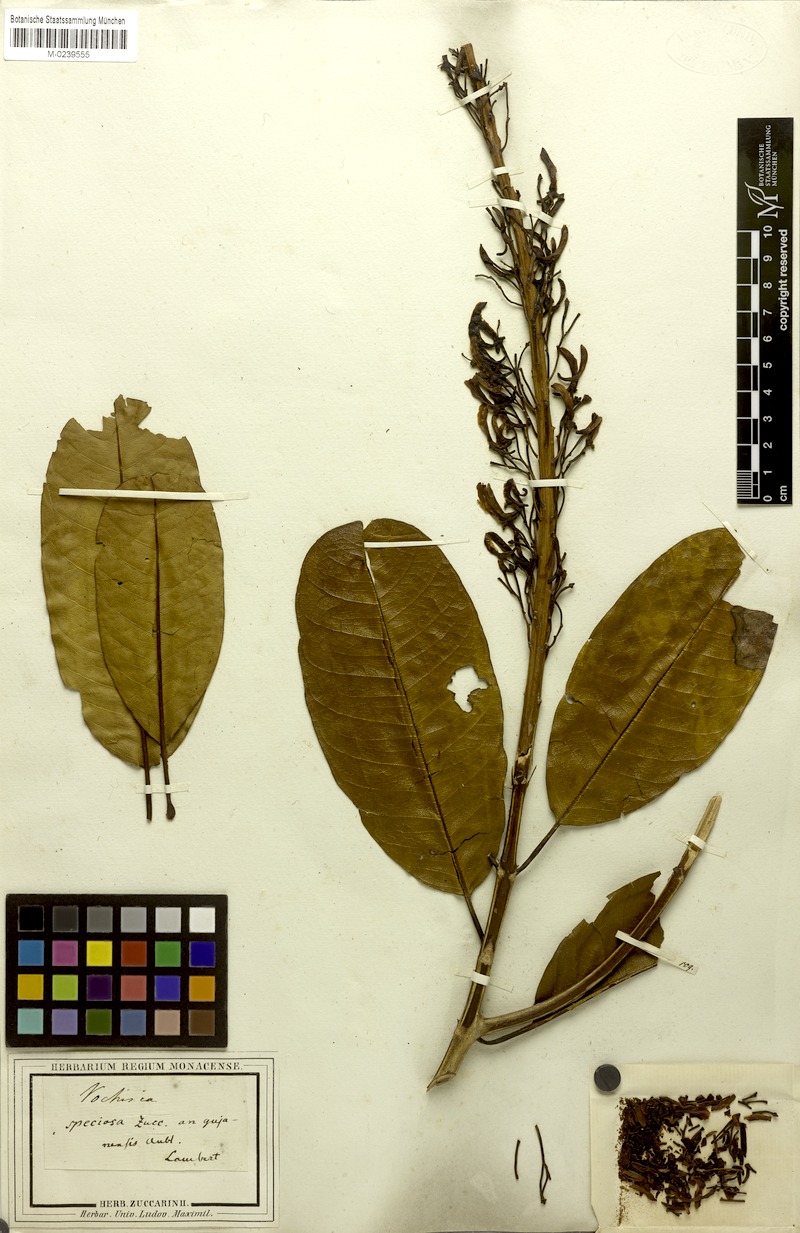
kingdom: Plantae
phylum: Tracheophyta
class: Magnoliopsida
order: Myrtales
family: Vochysiaceae
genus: Vochysia
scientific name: Vochysia speciosa
